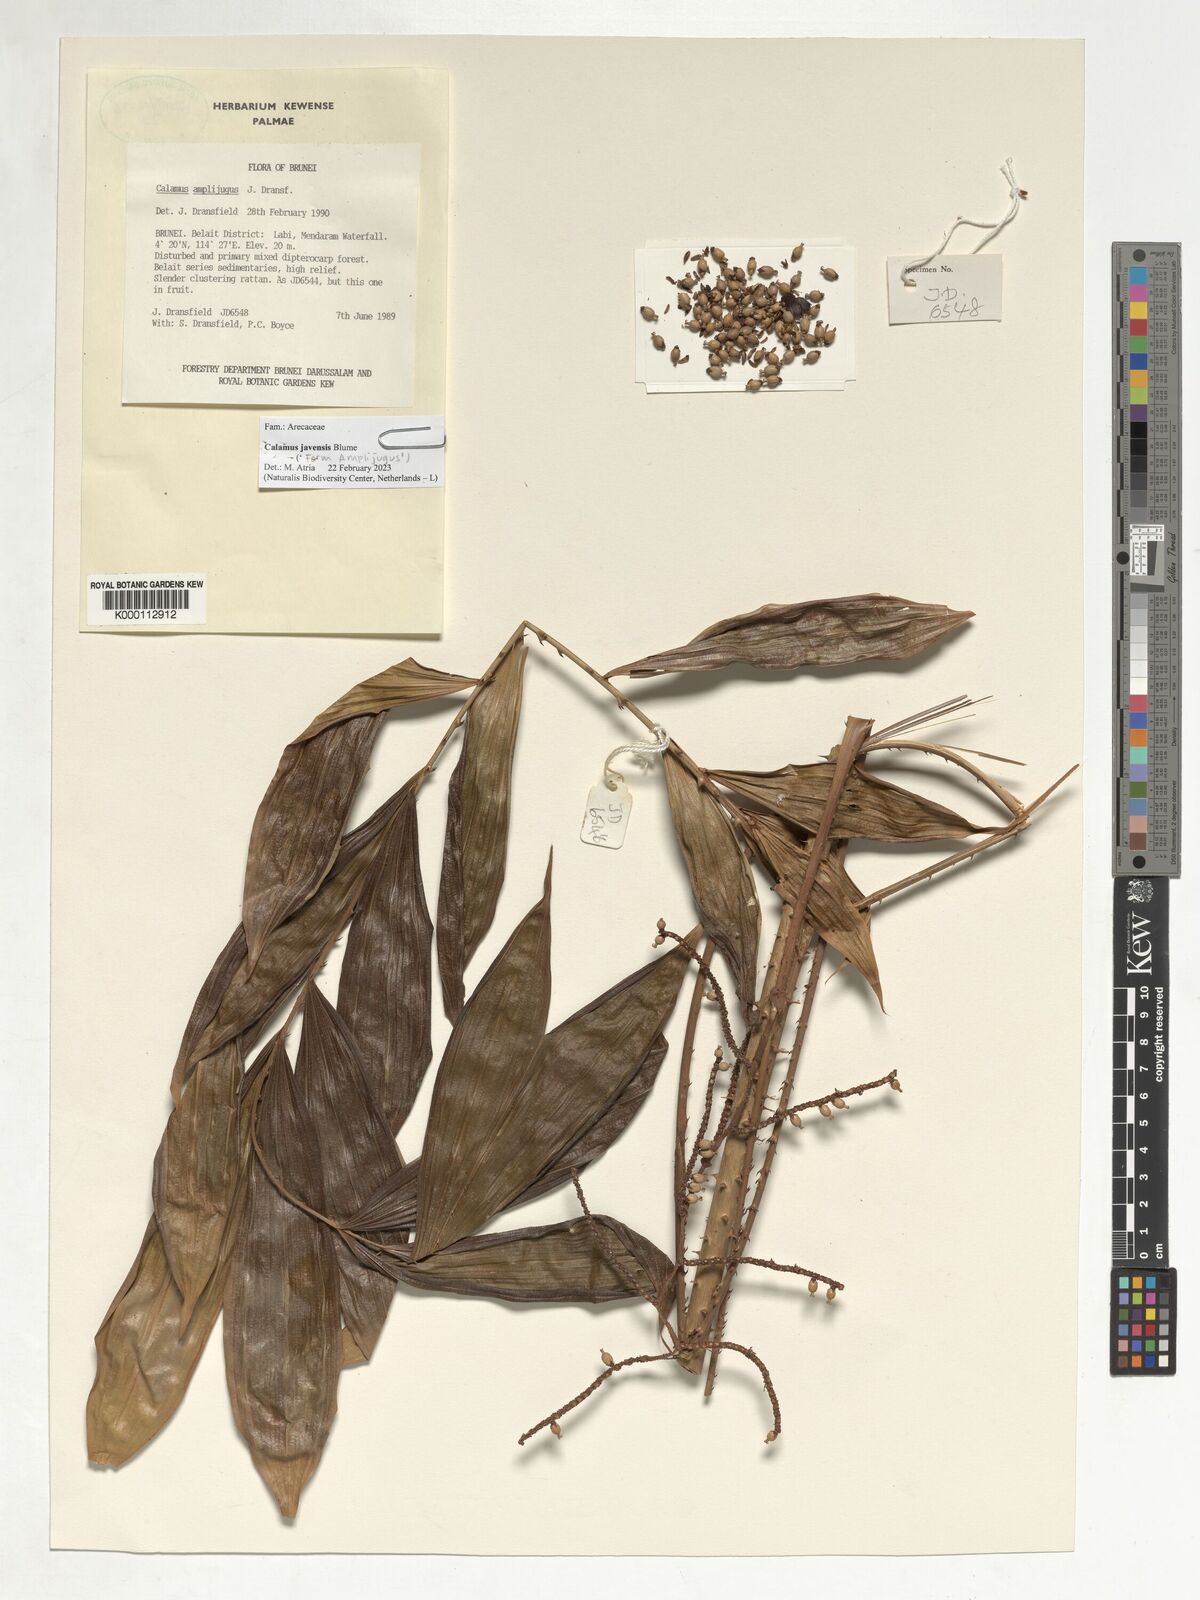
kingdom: Plantae
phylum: Tracheophyta
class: Liliopsida
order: Arecales
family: Arecaceae
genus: Calamus
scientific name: Calamus javensis
